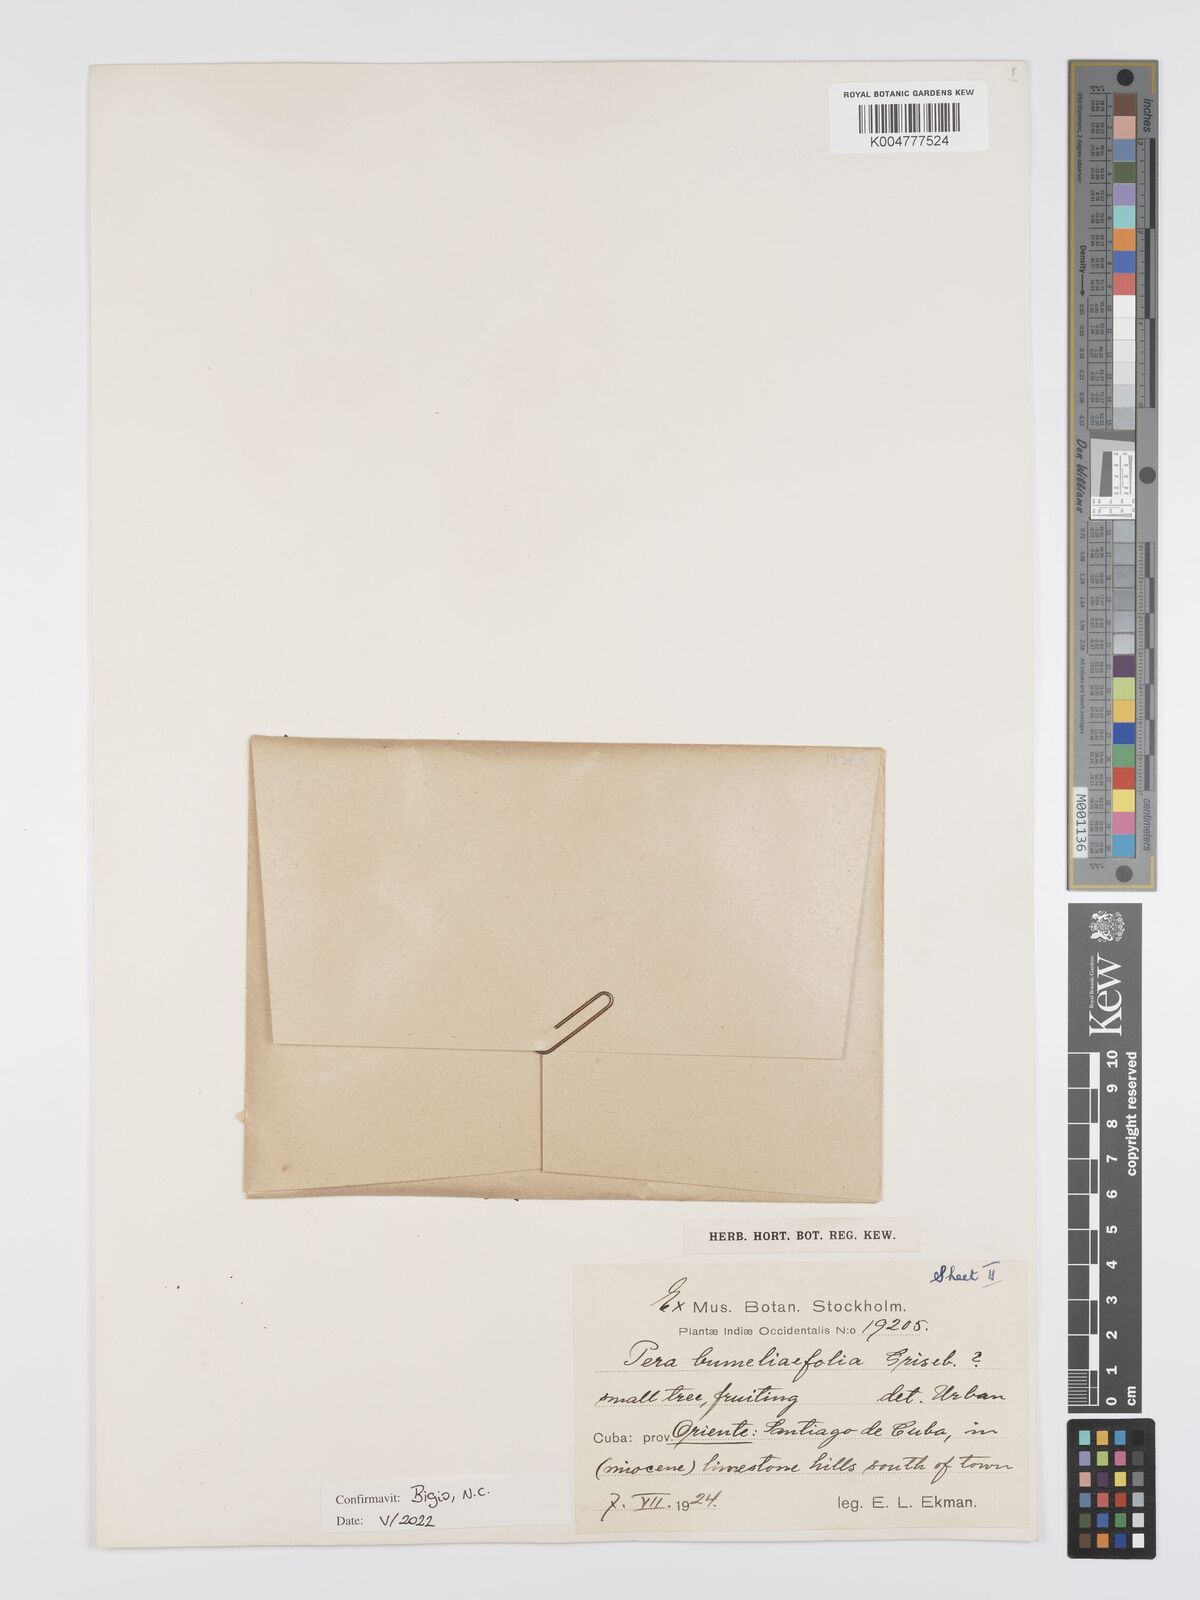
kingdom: Plantae
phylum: Tracheophyta
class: Magnoliopsida
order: Malpighiales
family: Peraceae
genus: Pera
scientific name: Pera
